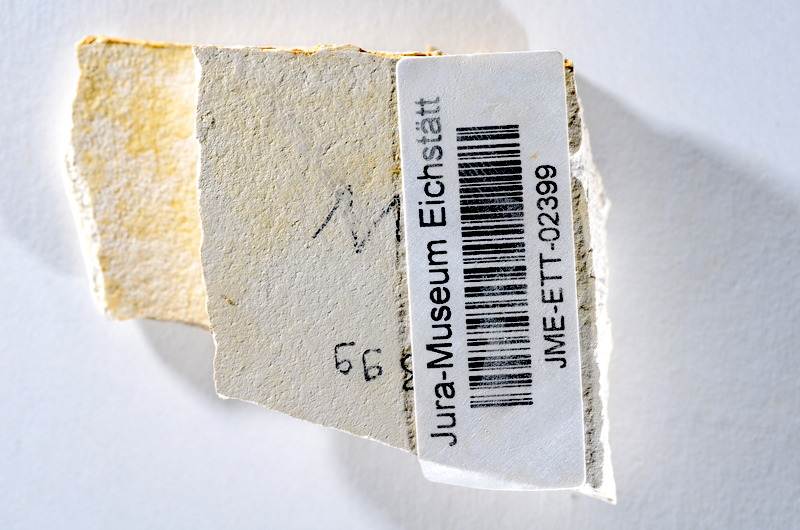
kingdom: Animalia
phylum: Chordata
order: Salmoniformes
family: Orthogonikleithridae
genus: Orthogonikleithrus
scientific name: Orthogonikleithrus hoelli
